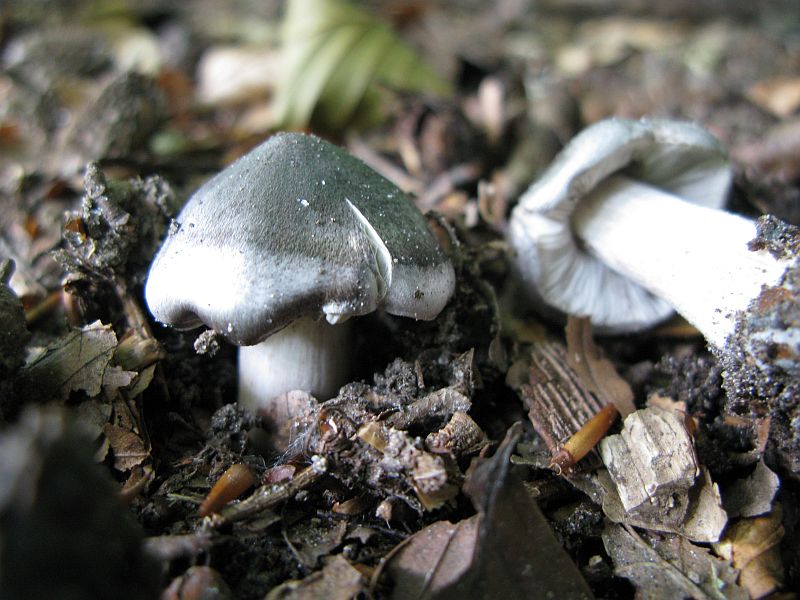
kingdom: Fungi
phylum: Basidiomycota
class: Agaricomycetes
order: Agaricales
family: Tricholomataceae
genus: Tricholoma
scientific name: Tricholoma sciodes
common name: stribet ridderhat
